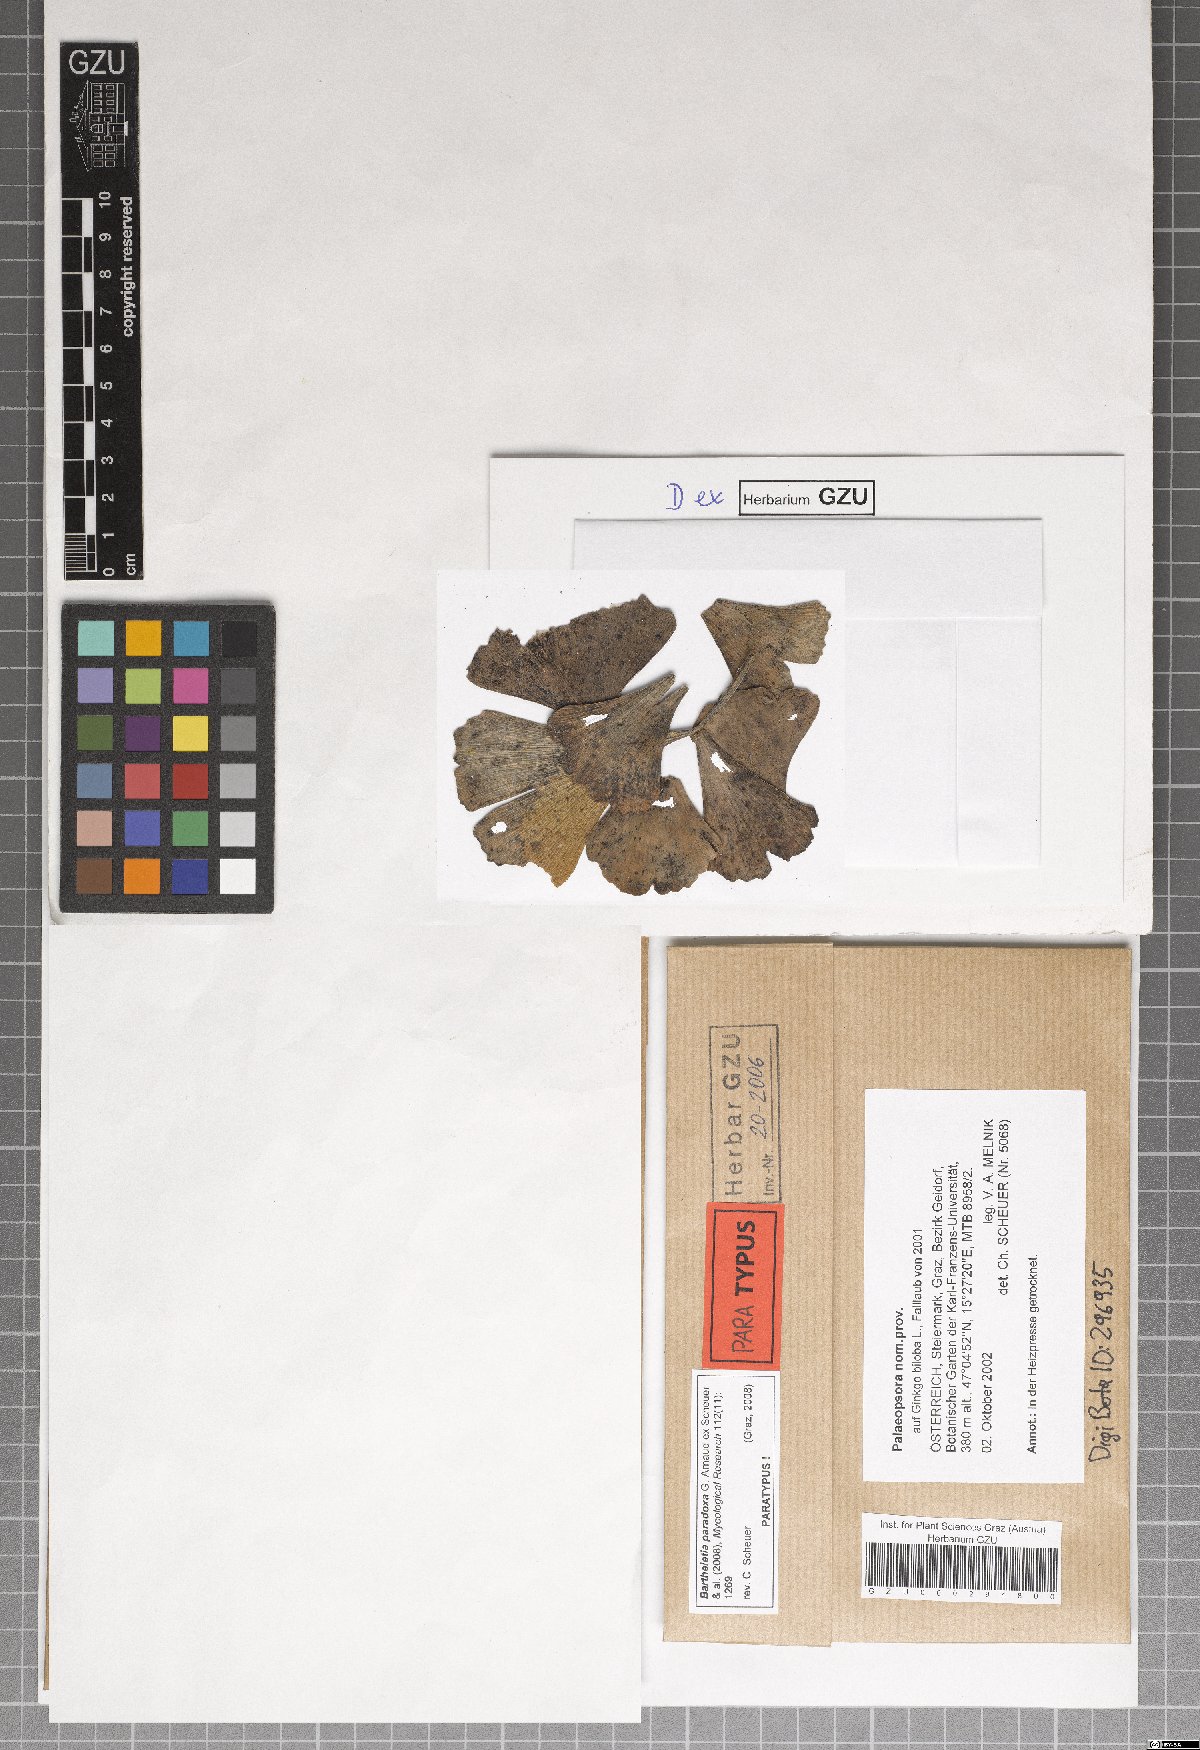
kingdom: Fungi
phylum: Basidiomycota
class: Wallemiomycetes
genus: Bartheletia
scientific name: Bartheletia paradoxa
